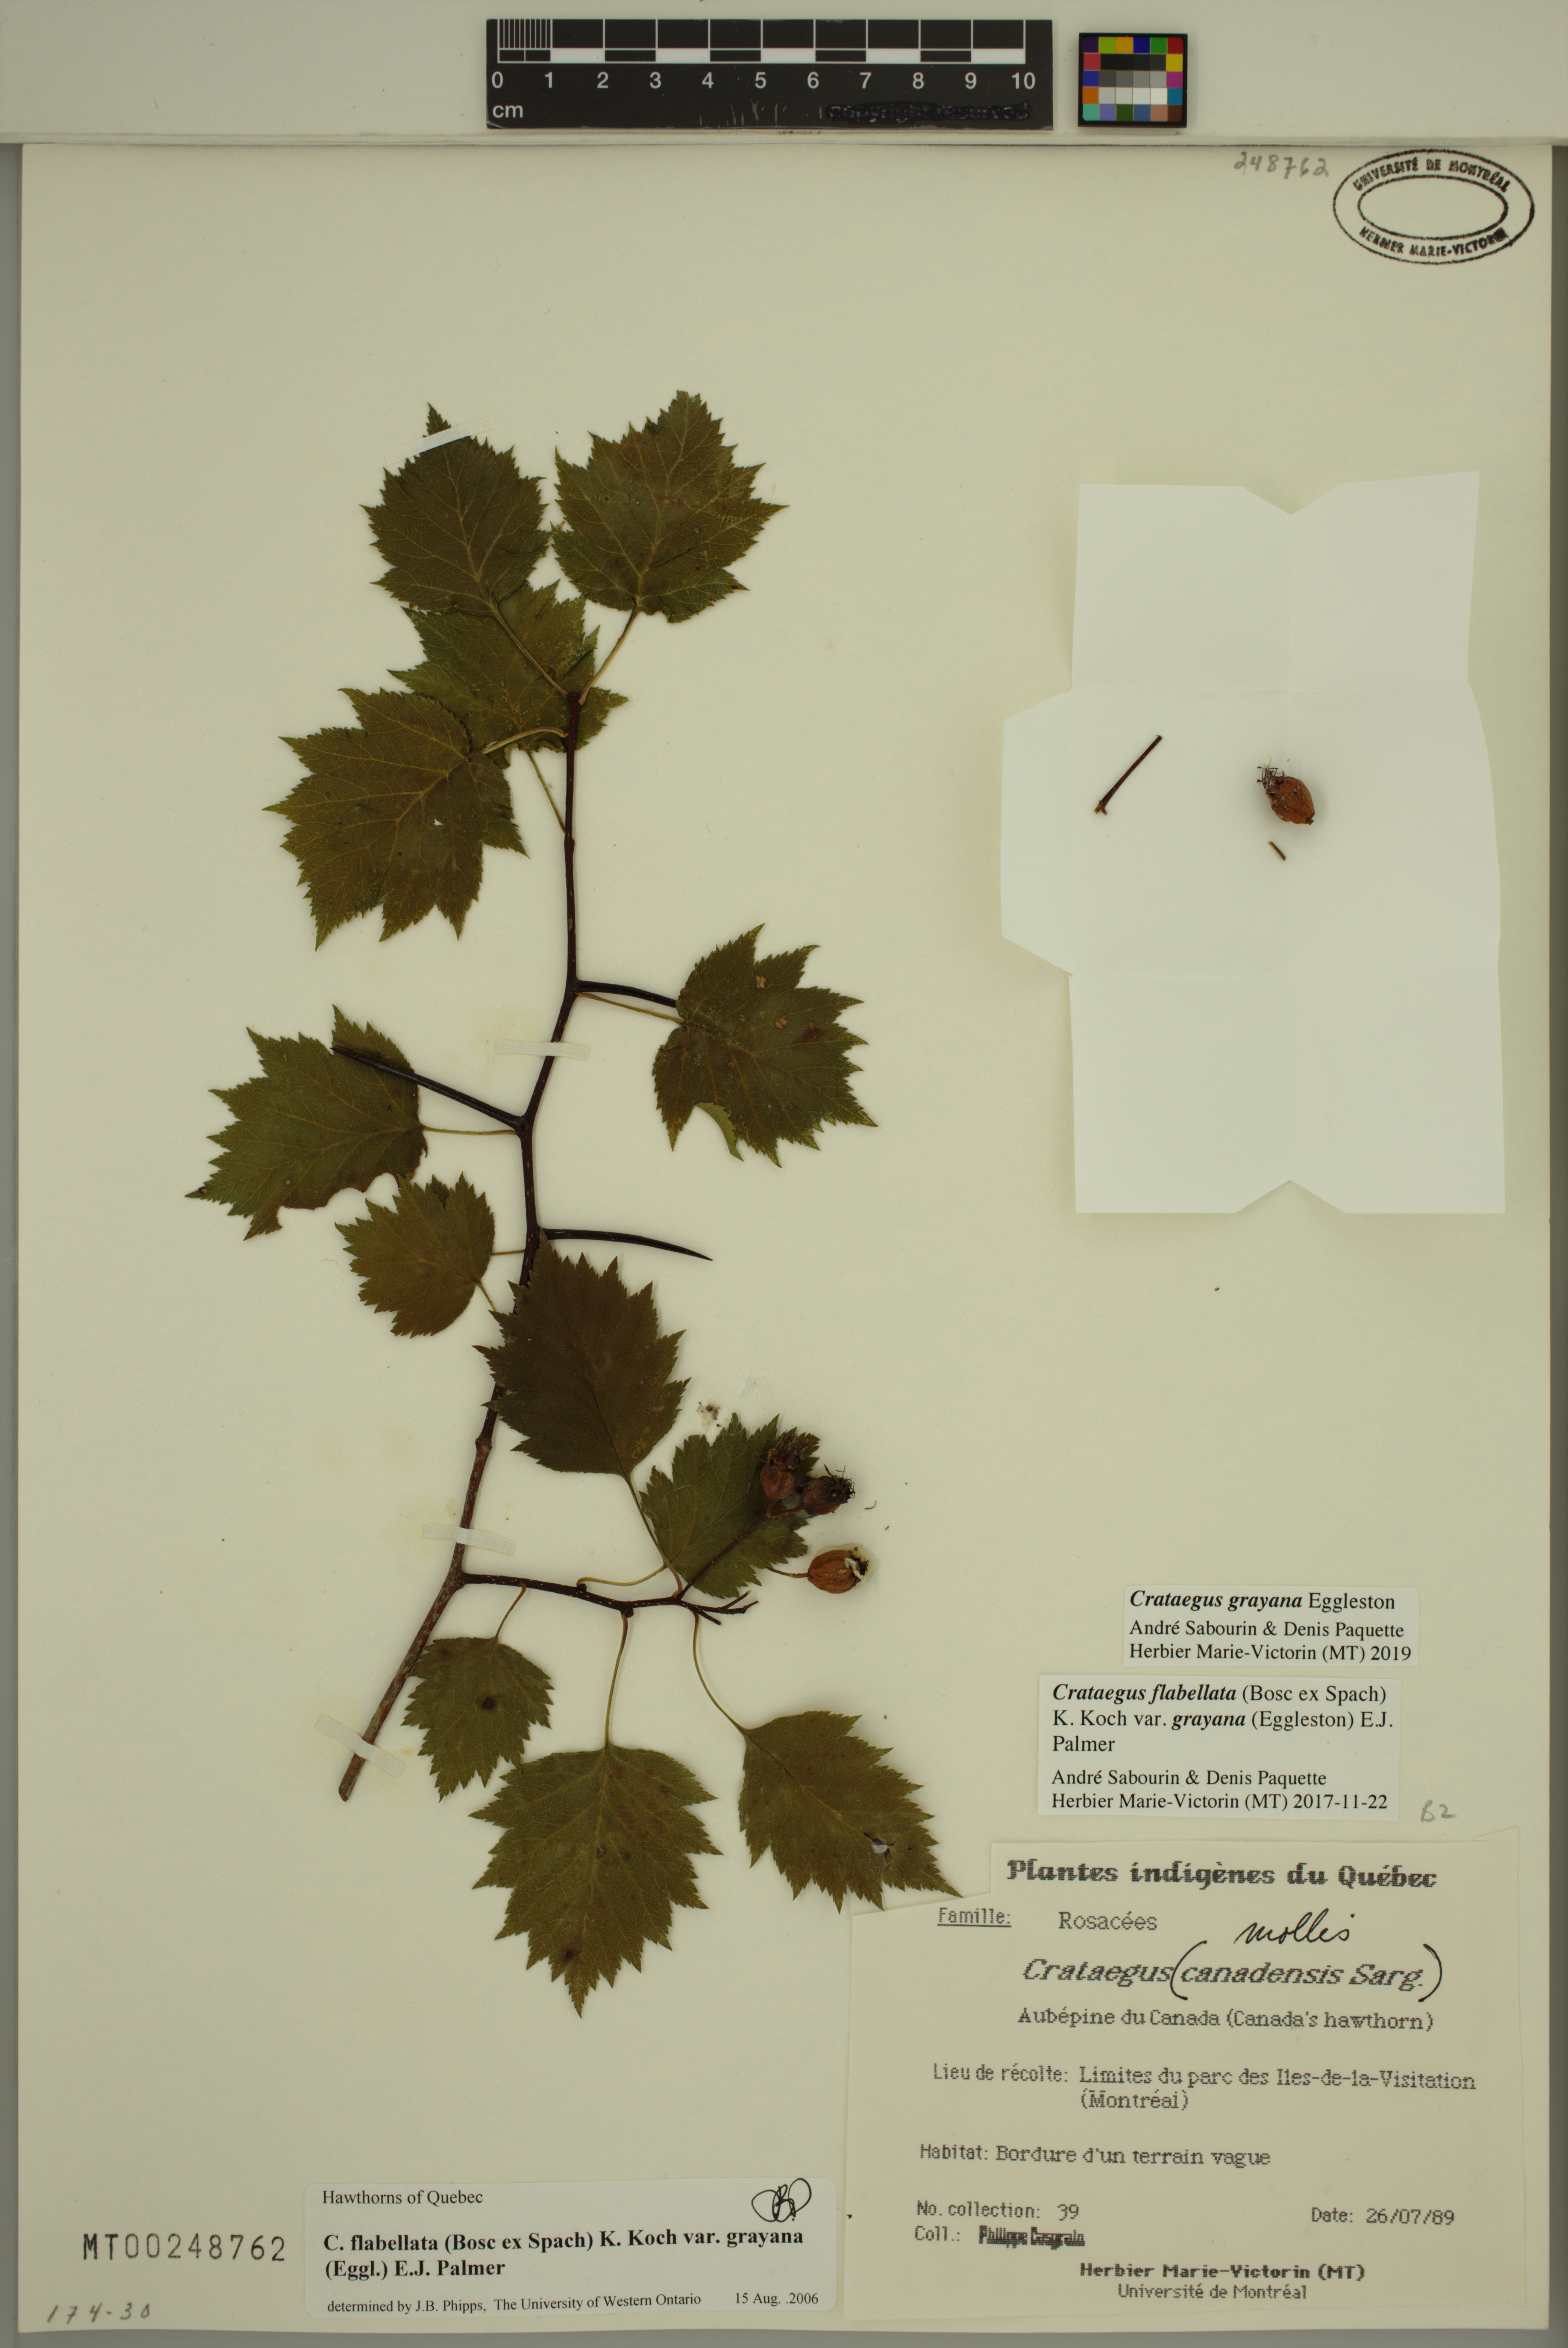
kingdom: Plantae
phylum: Tracheophyta
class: Magnoliopsida
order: Rosales
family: Rosaceae
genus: Crataegus
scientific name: Crataegus schuettei
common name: Schuette's hawthorn
